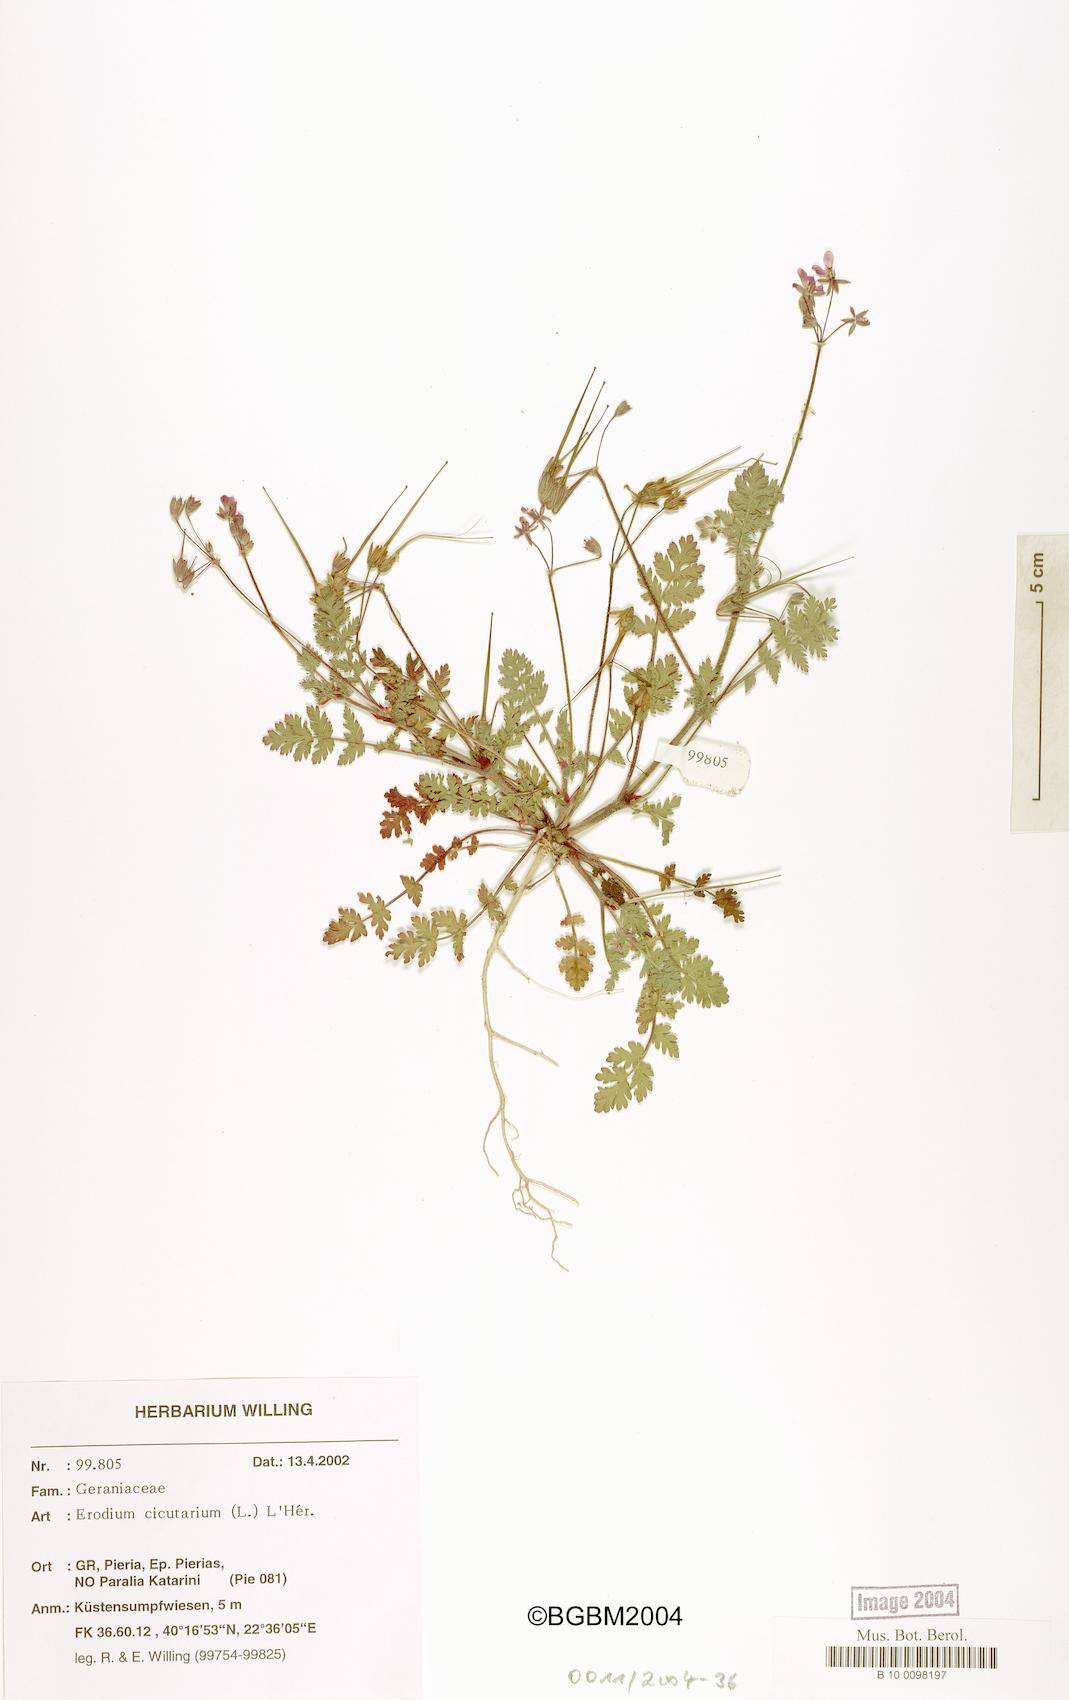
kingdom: Plantae
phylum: Tracheophyta
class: Magnoliopsida
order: Geraniales
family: Geraniaceae
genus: Erodium
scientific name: Erodium cicutarium
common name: Common stork's-bill
